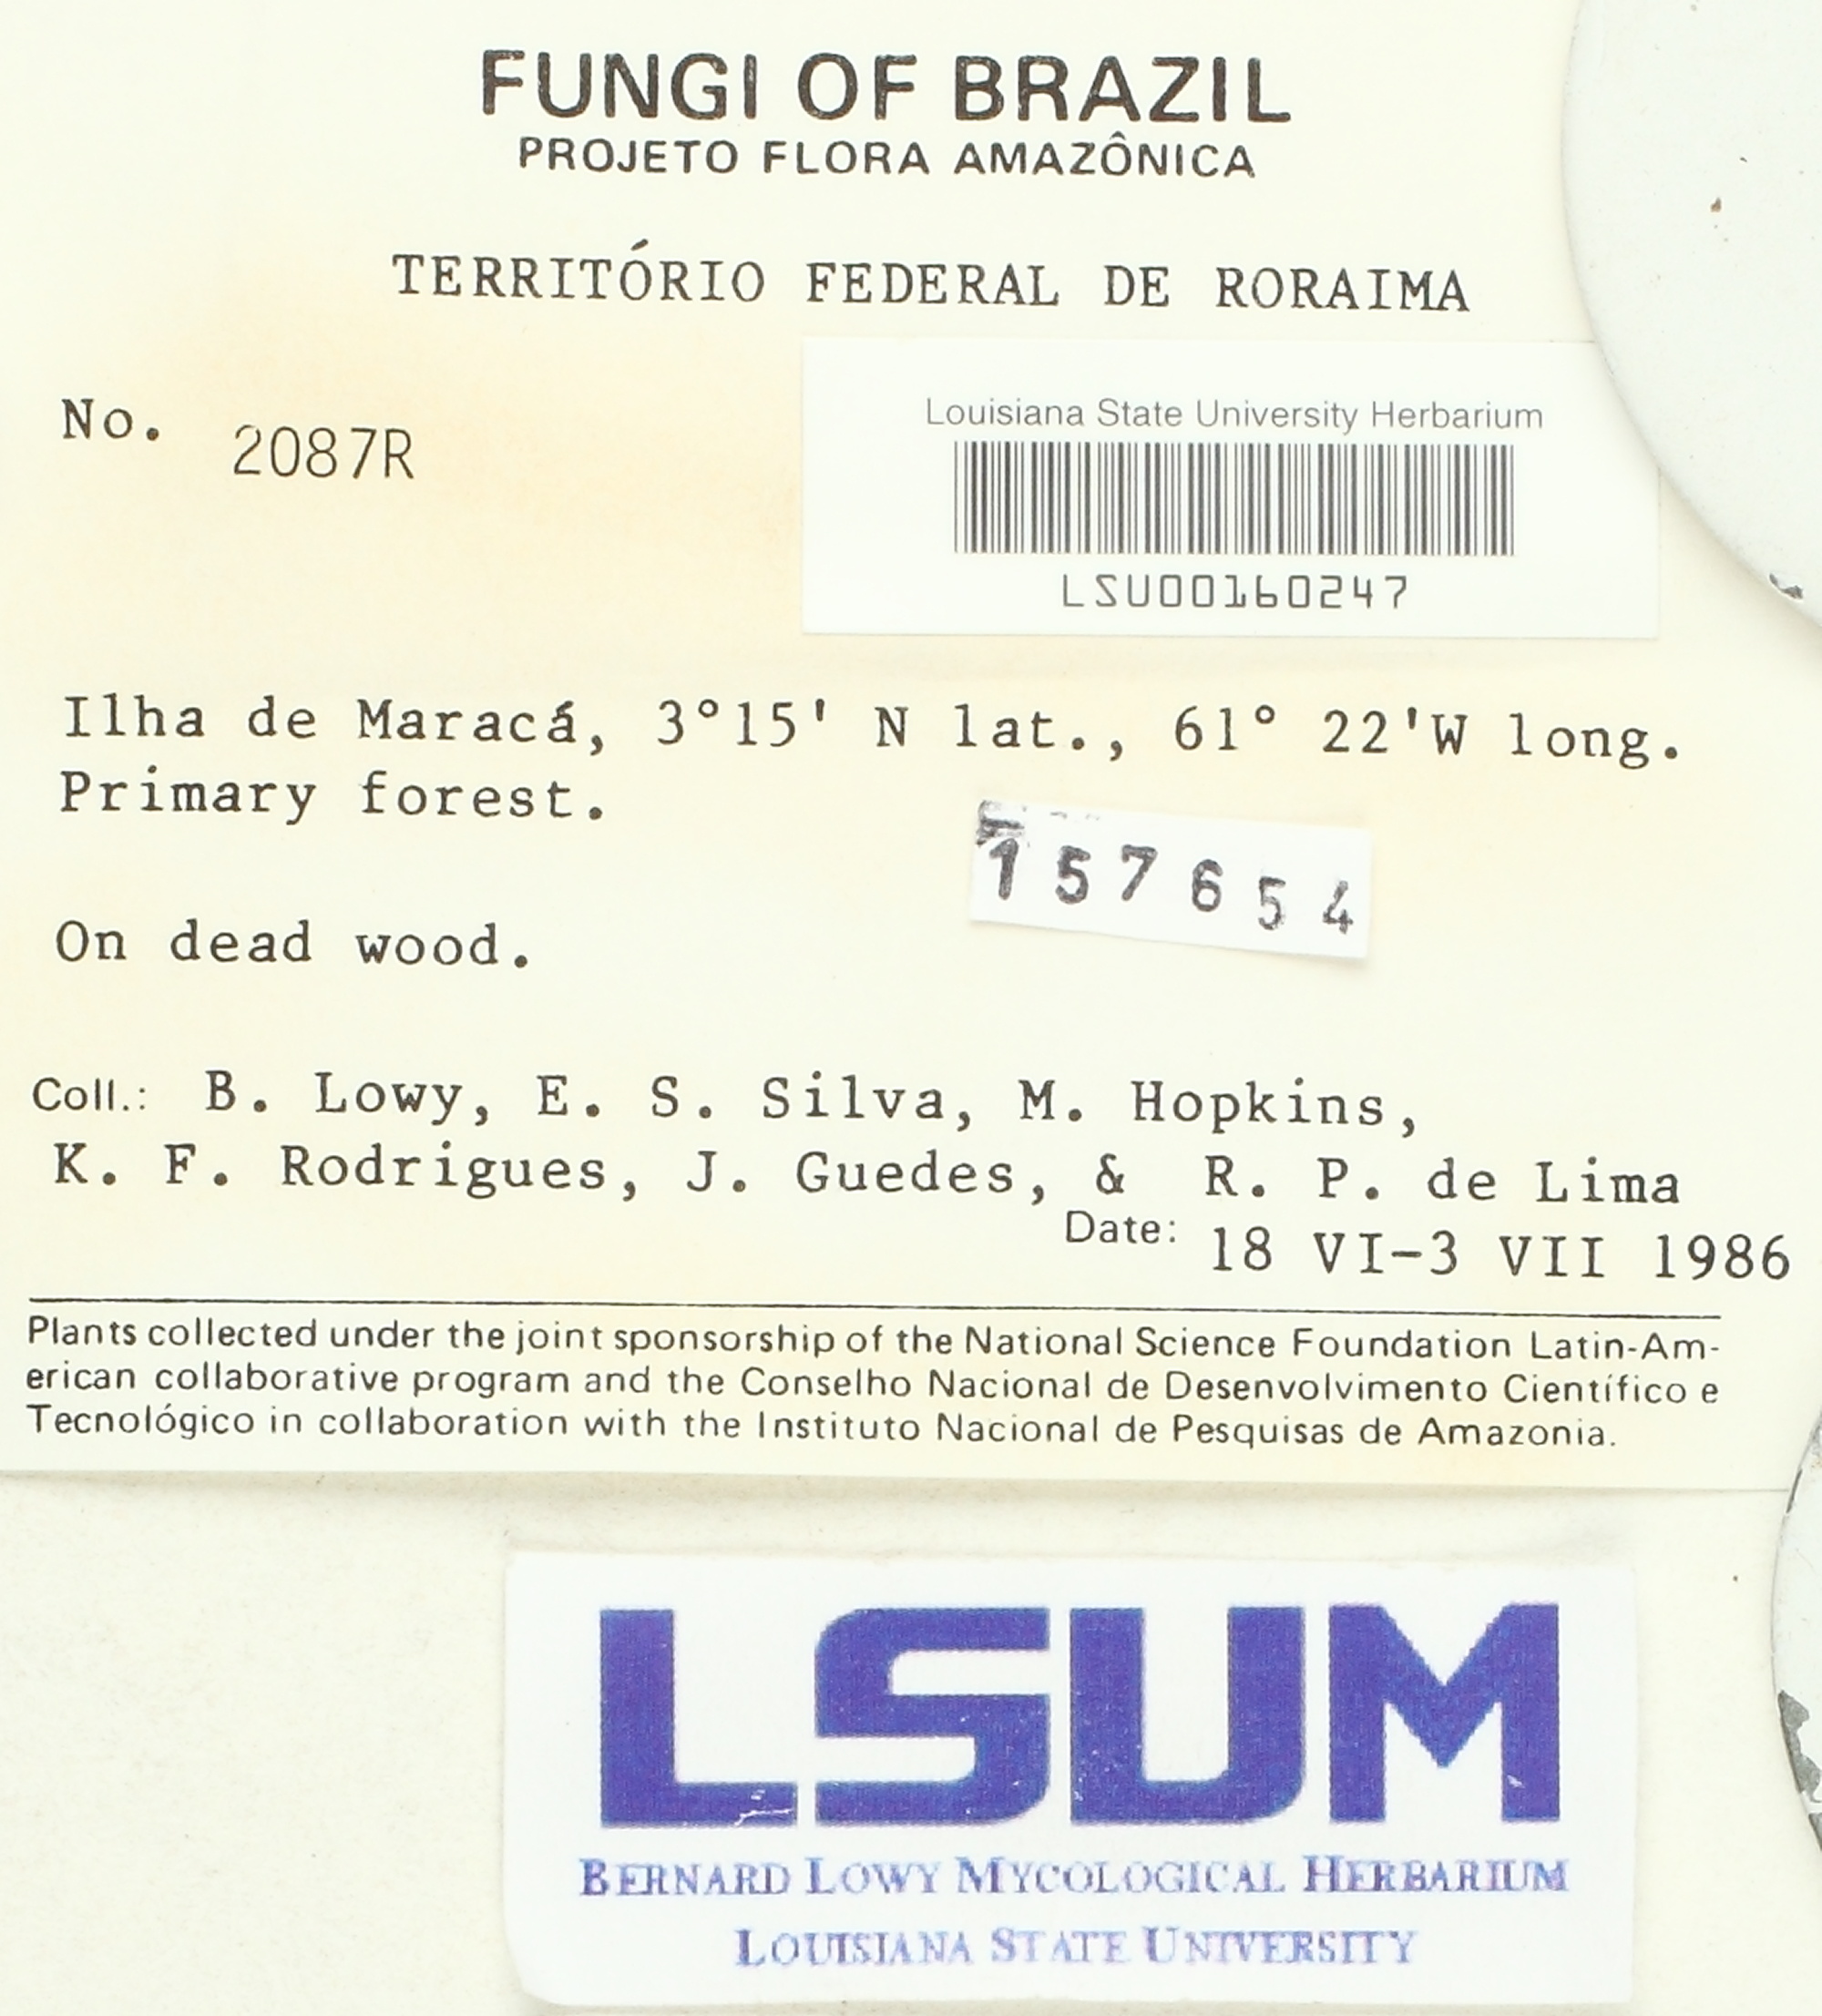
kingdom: Fungi
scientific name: Fungi
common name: Fungi
